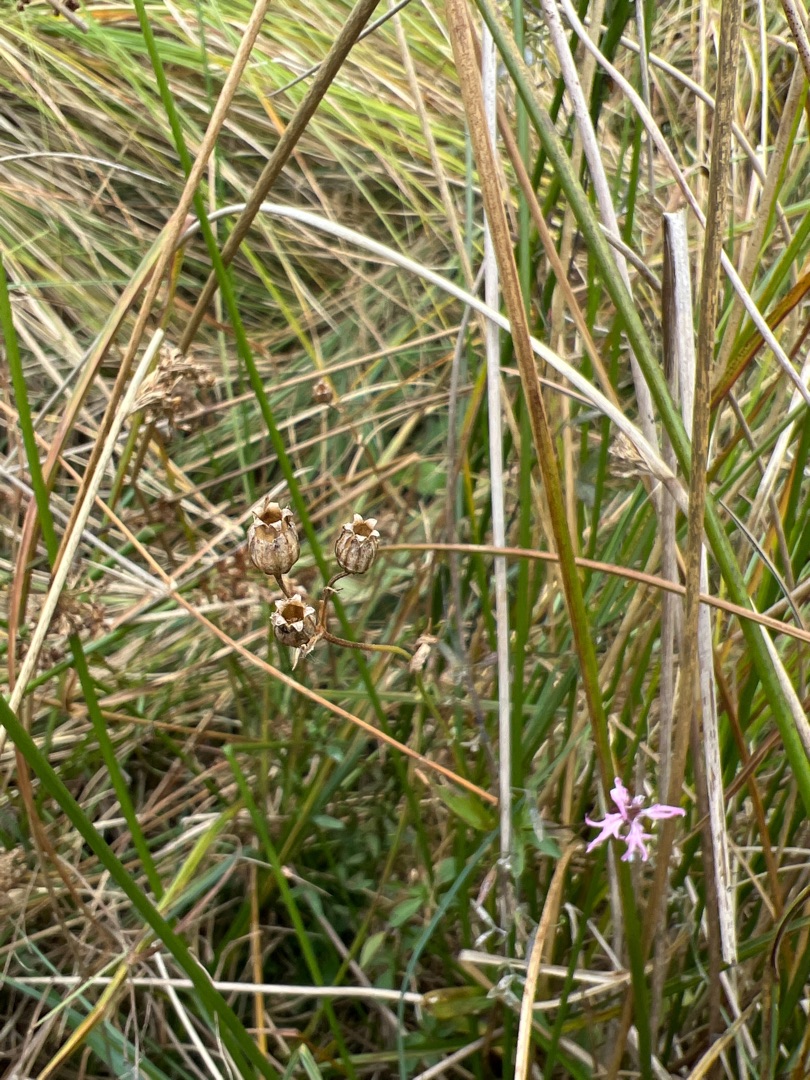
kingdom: Plantae
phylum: Tracheophyta
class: Magnoliopsida
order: Caryophyllales
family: Caryophyllaceae
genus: Silene
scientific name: Silene flos-cuculi
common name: Trævlekrone
